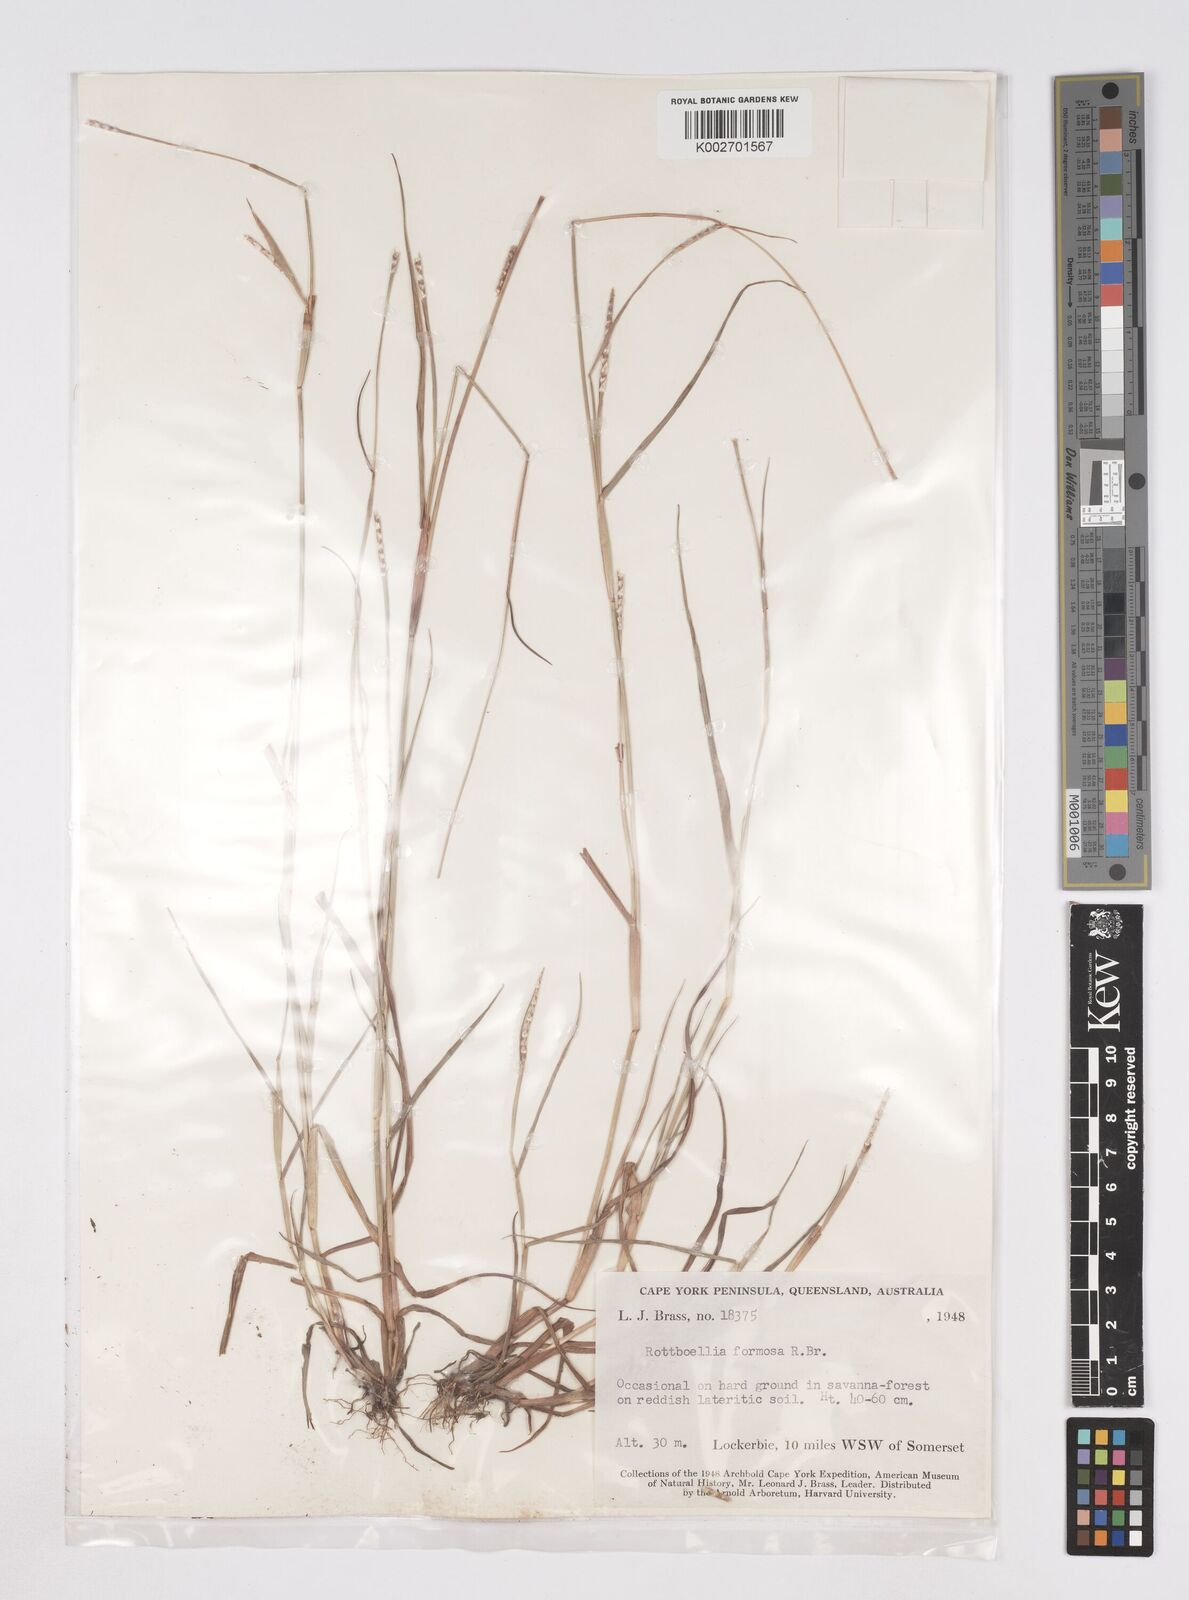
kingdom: Plantae
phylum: Tracheophyta
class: Liliopsida
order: Poales
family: Poaceae
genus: Heteropholis
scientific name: Heteropholis
